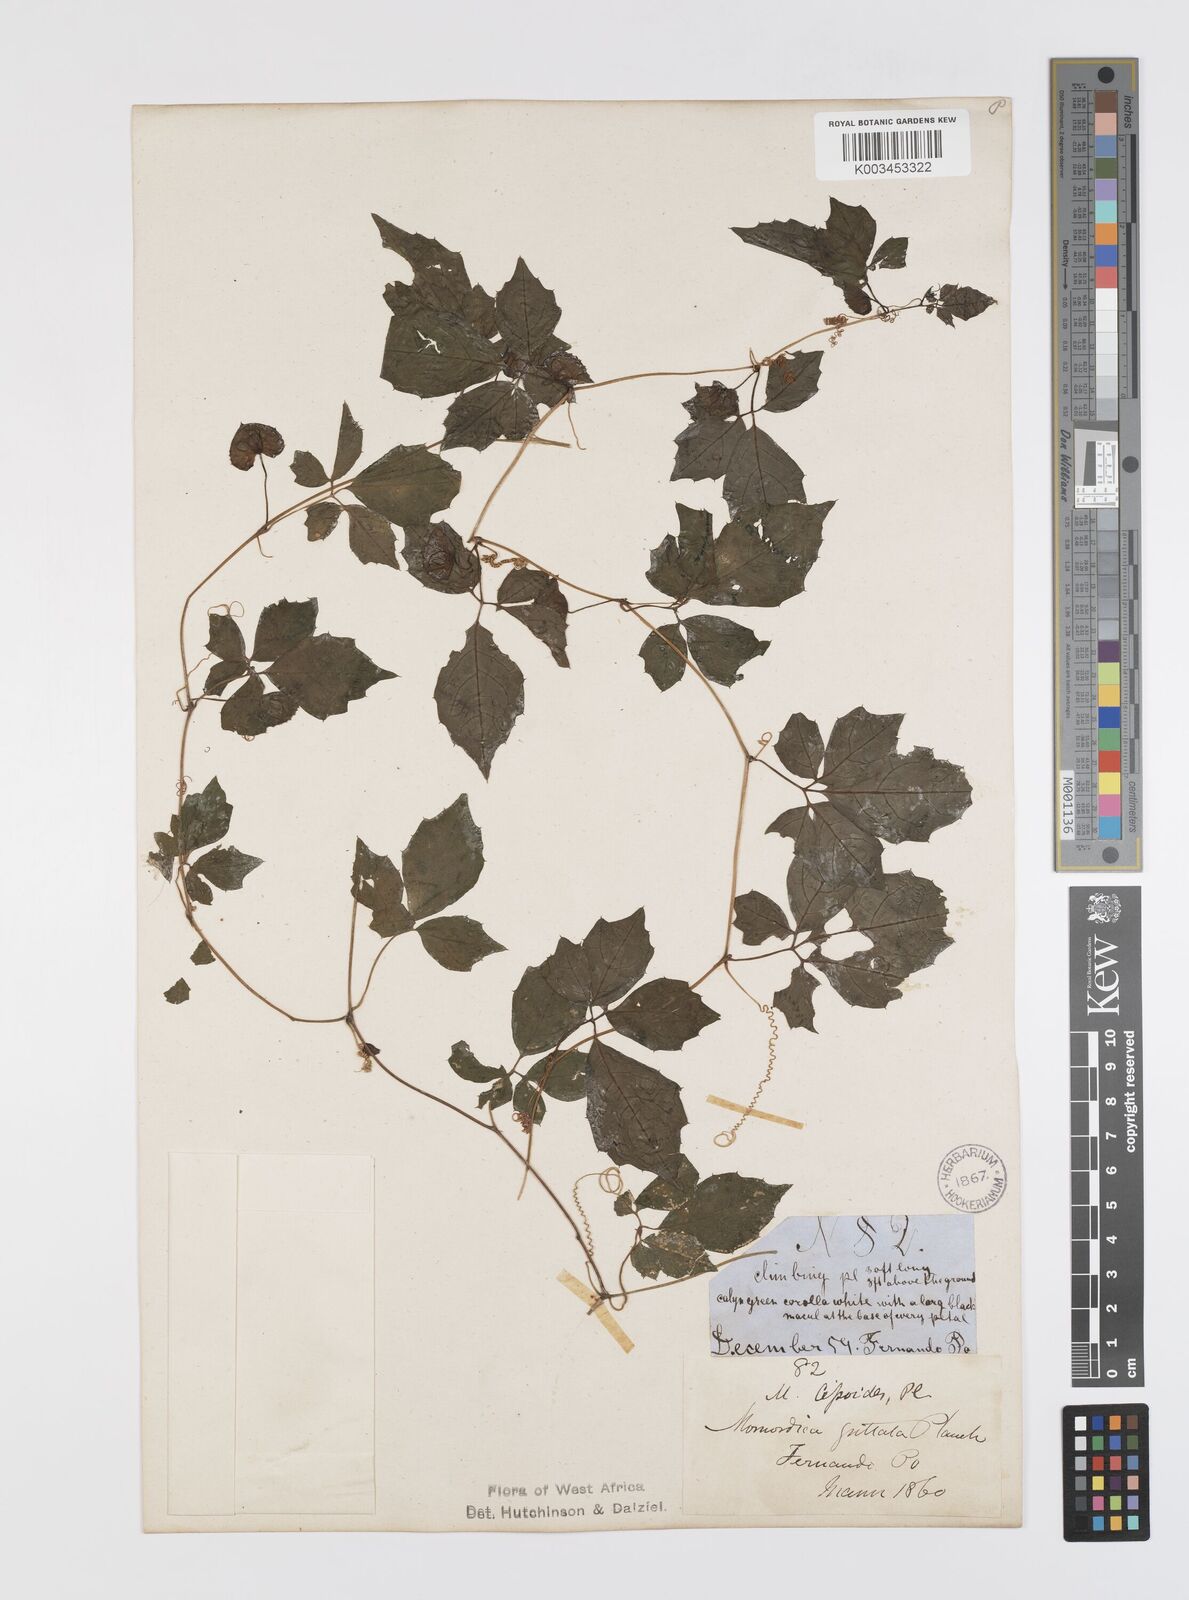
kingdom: Plantae
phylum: Tracheophyta
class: Magnoliopsida
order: Cucurbitales
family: Cucurbitaceae
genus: Momordica
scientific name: Momordica cissoides
